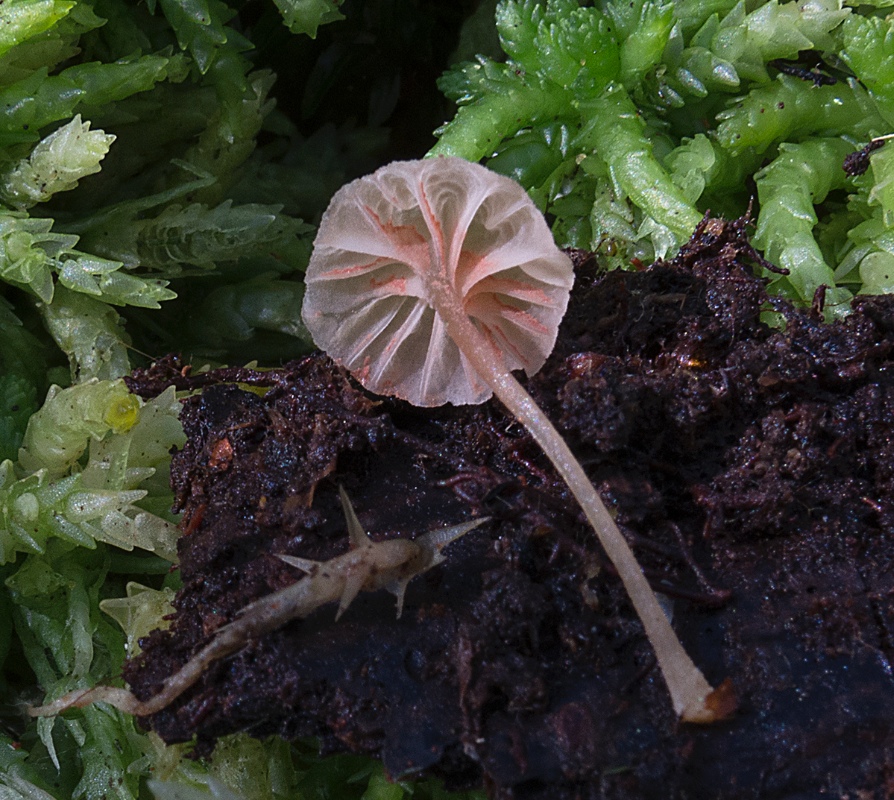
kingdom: Fungi
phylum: Basidiomycota
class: Agaricomycetes
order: Agaricales
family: Entolomataceae
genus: Entoloma
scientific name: Entoloma rhodocylix
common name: fjernbladet rødblad
